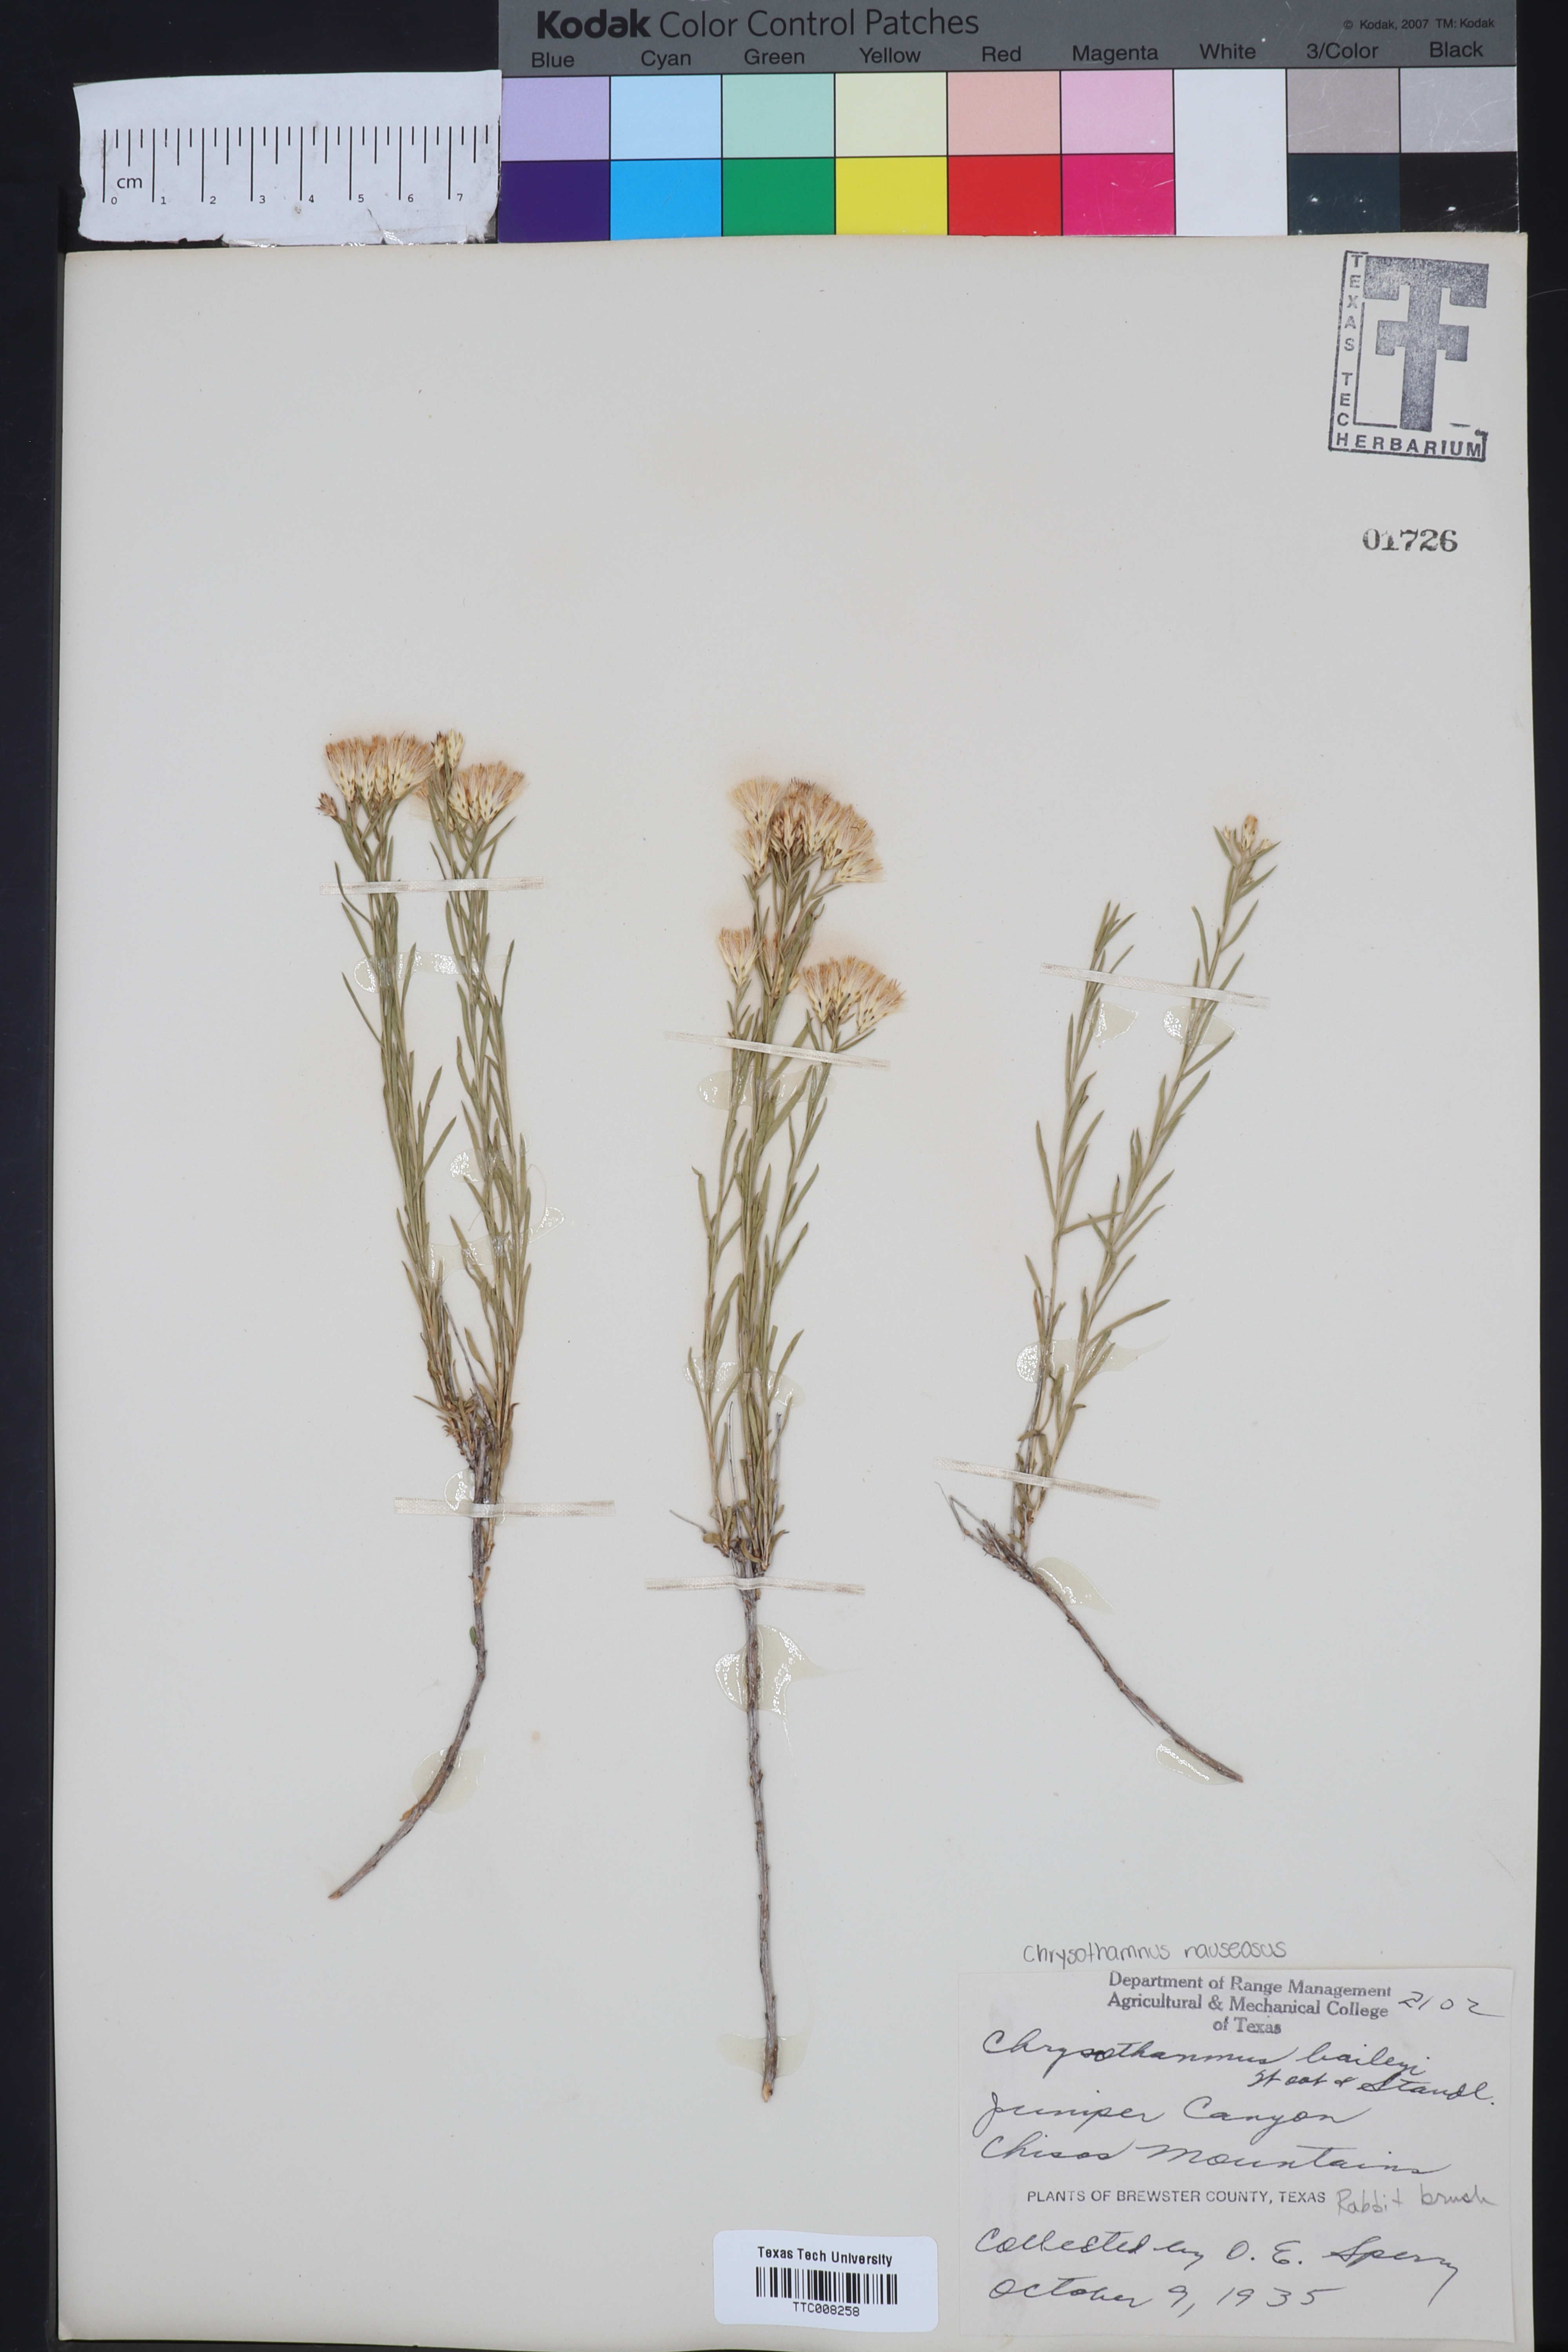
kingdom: Plantae
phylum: Tracheophyta
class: Magnoliopsida
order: Asterales
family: Asteraceae
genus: Lorandersonia
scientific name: Lorandersonia baileyi
